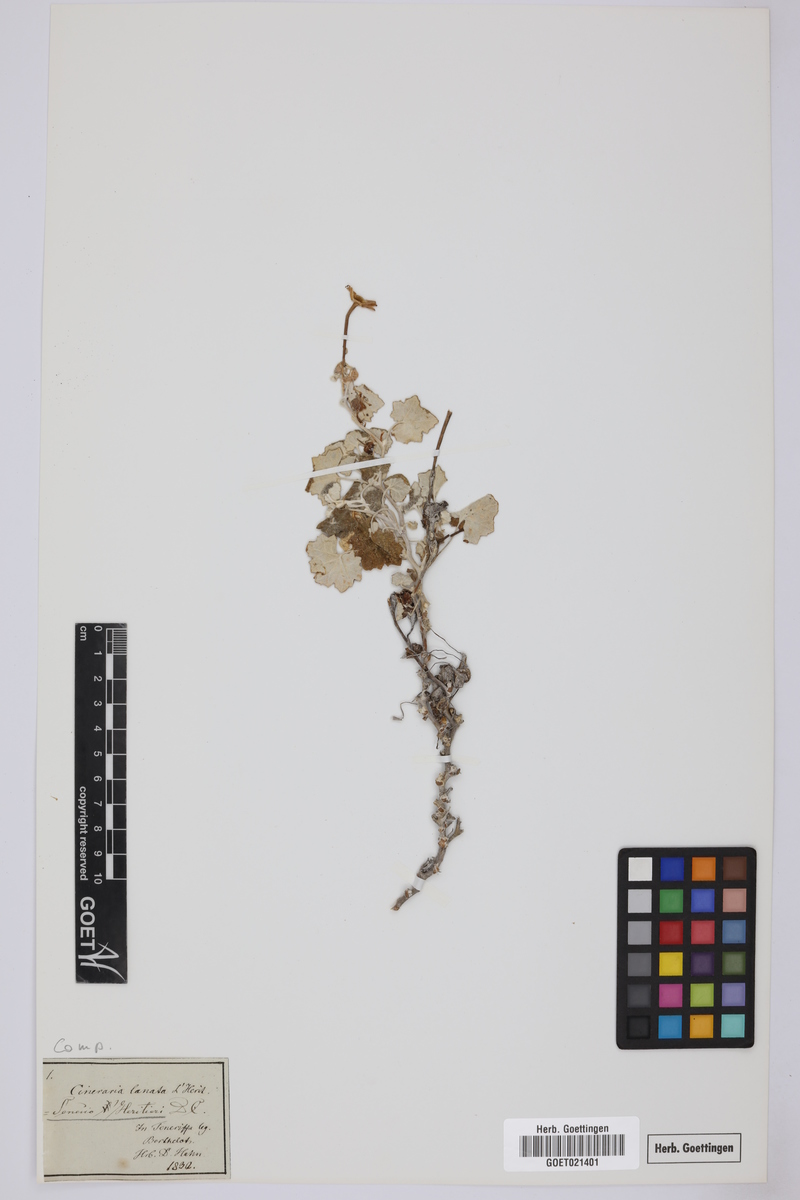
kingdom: Plantae
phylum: Tracheophyta
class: Magnoliopsida
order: Asterales
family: Asteraceae
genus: Pericallis
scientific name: Pericallis lanata
